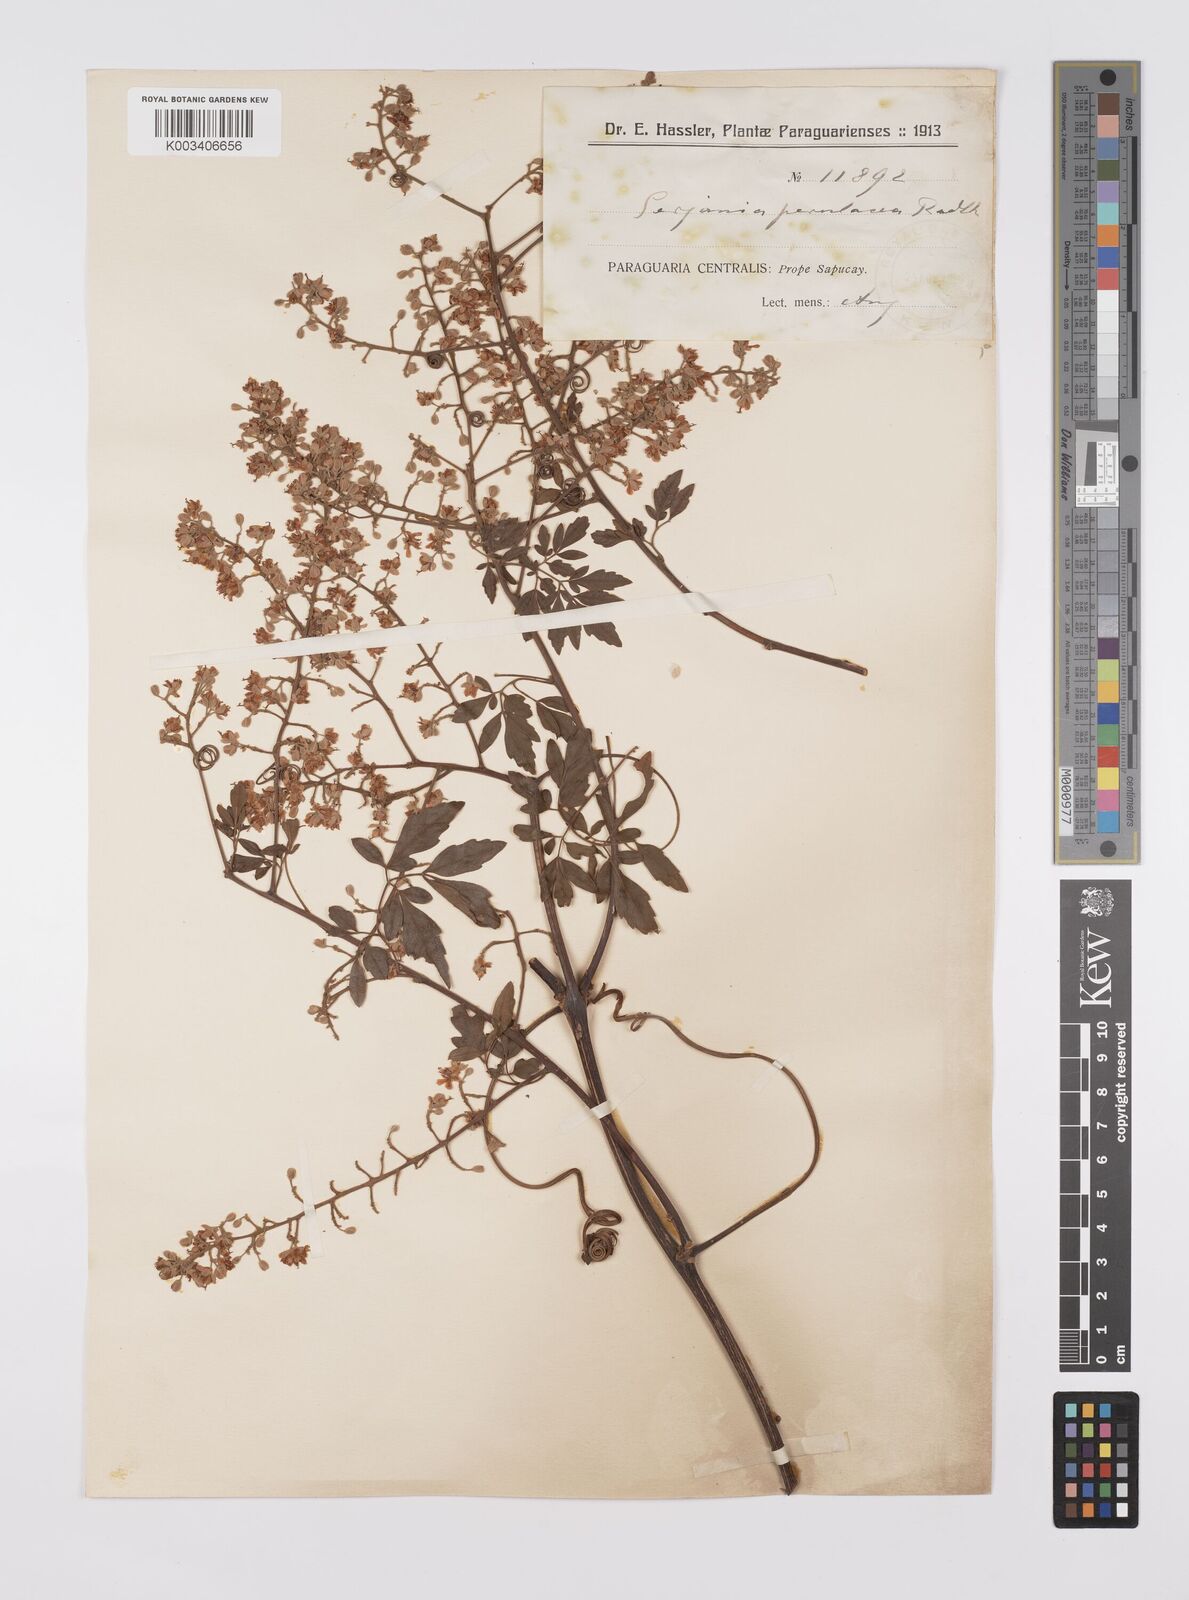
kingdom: Plantae
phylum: Tracheophyta
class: Magnoliopsida
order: Sapindales
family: Sapindaceae
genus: Serjania
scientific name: Serjania perulacea
